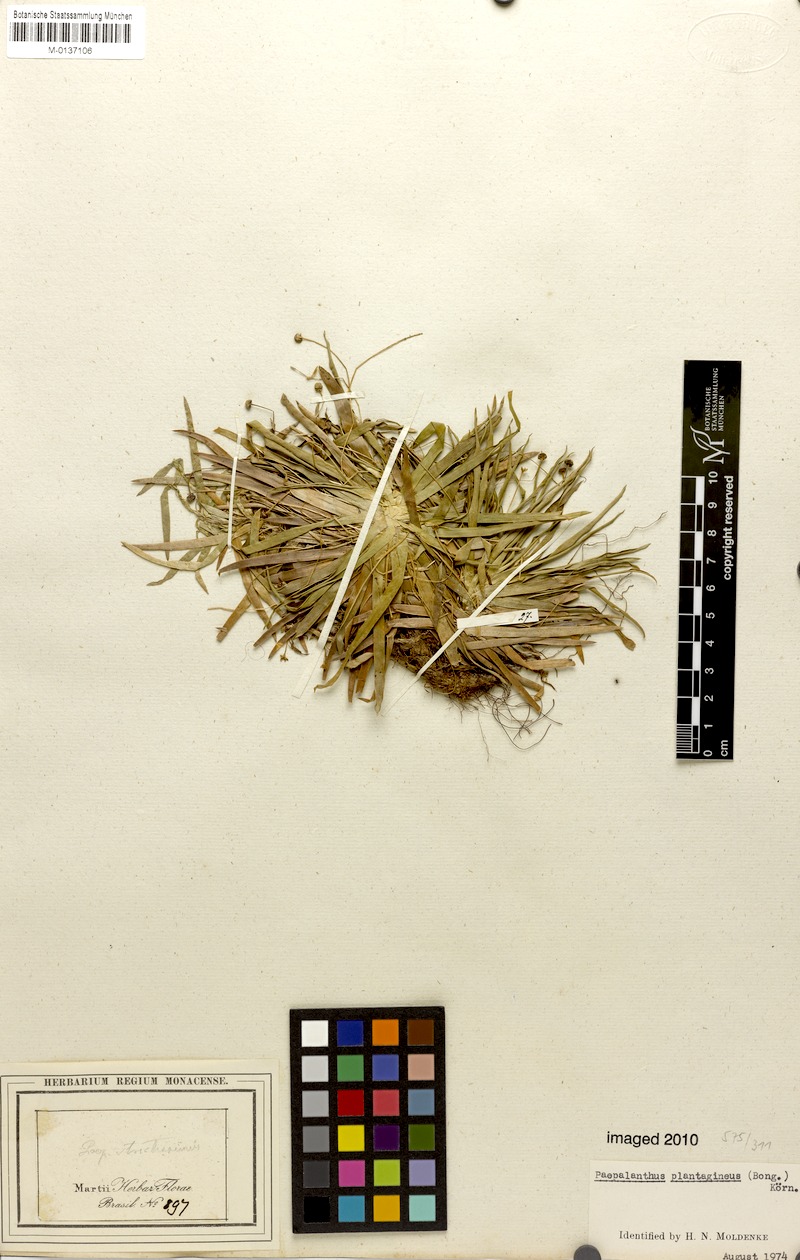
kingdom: Plantae
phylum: Tracheophyta
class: Liliopsida
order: Poales
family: Eriocaulaceae
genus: Paepalanthus
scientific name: Paepalanthus plantagineus
